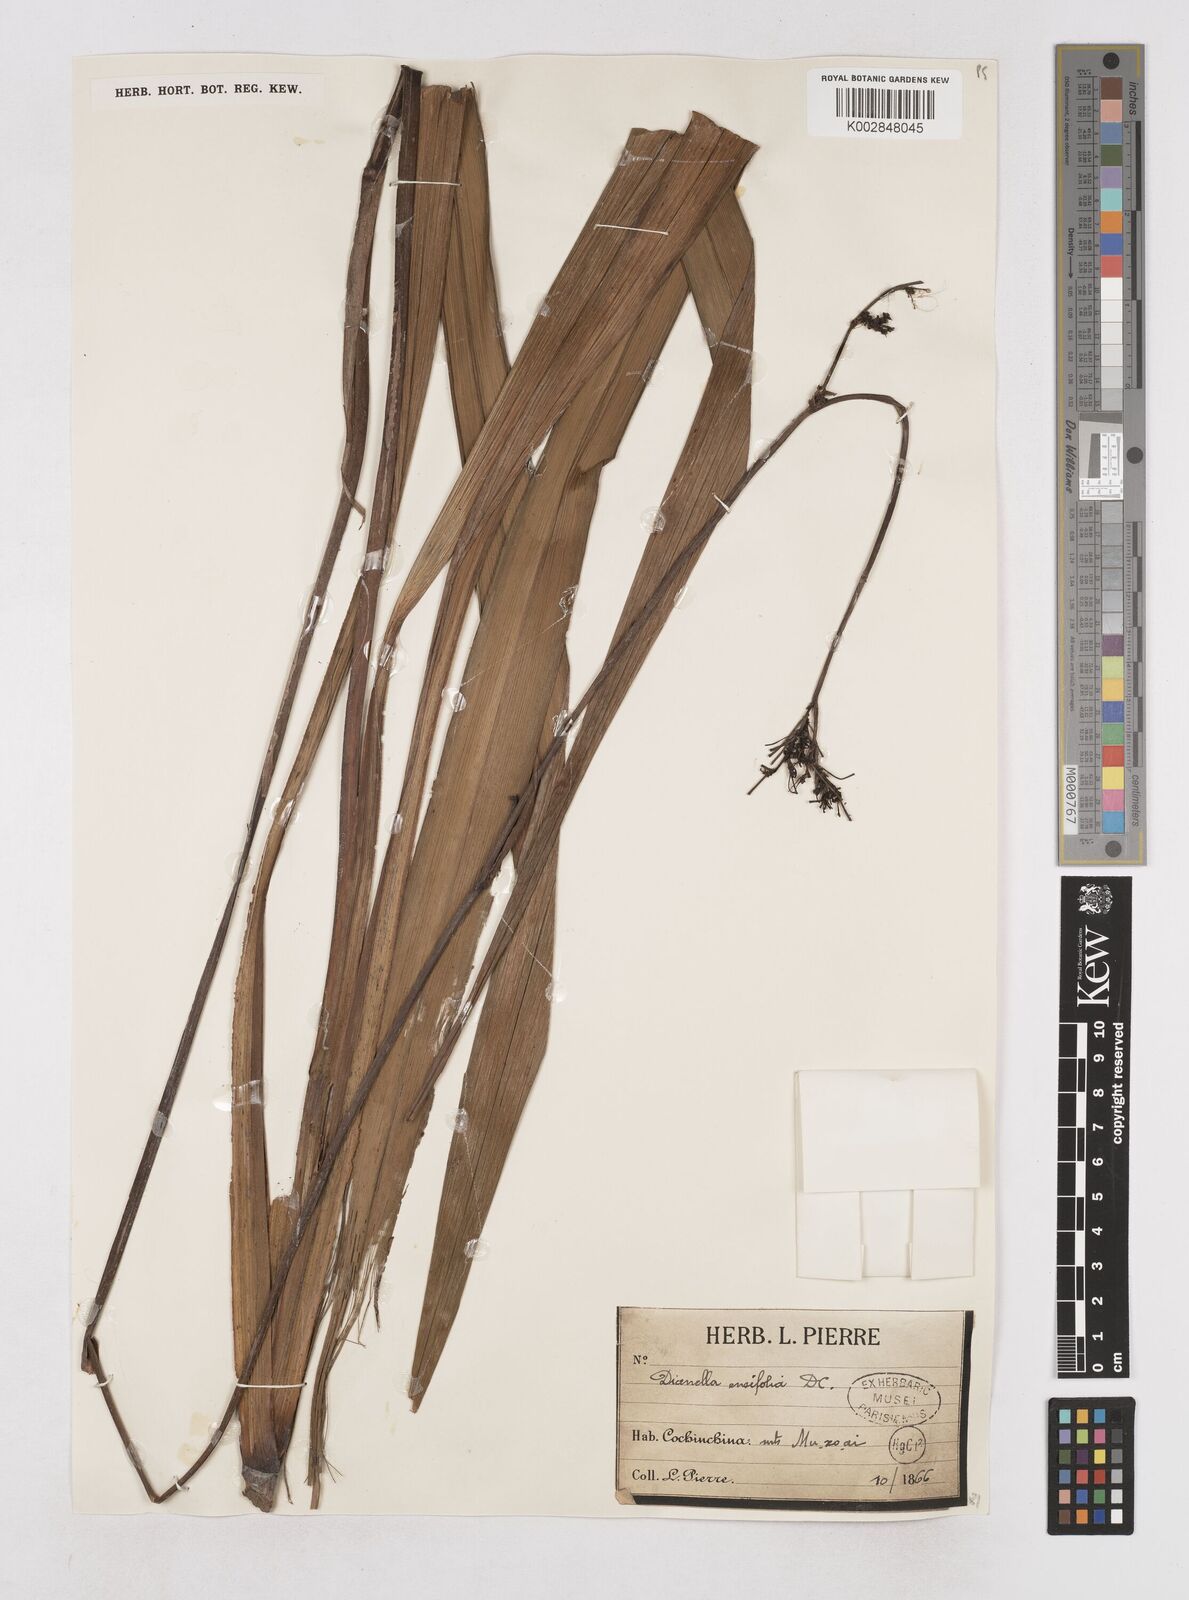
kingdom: Plantae
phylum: Tracheophyta
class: Liliopsida
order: Asparagales
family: Asphodelaceae
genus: Dianella
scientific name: Dianella ensifolia
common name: New zealand lilyplant
